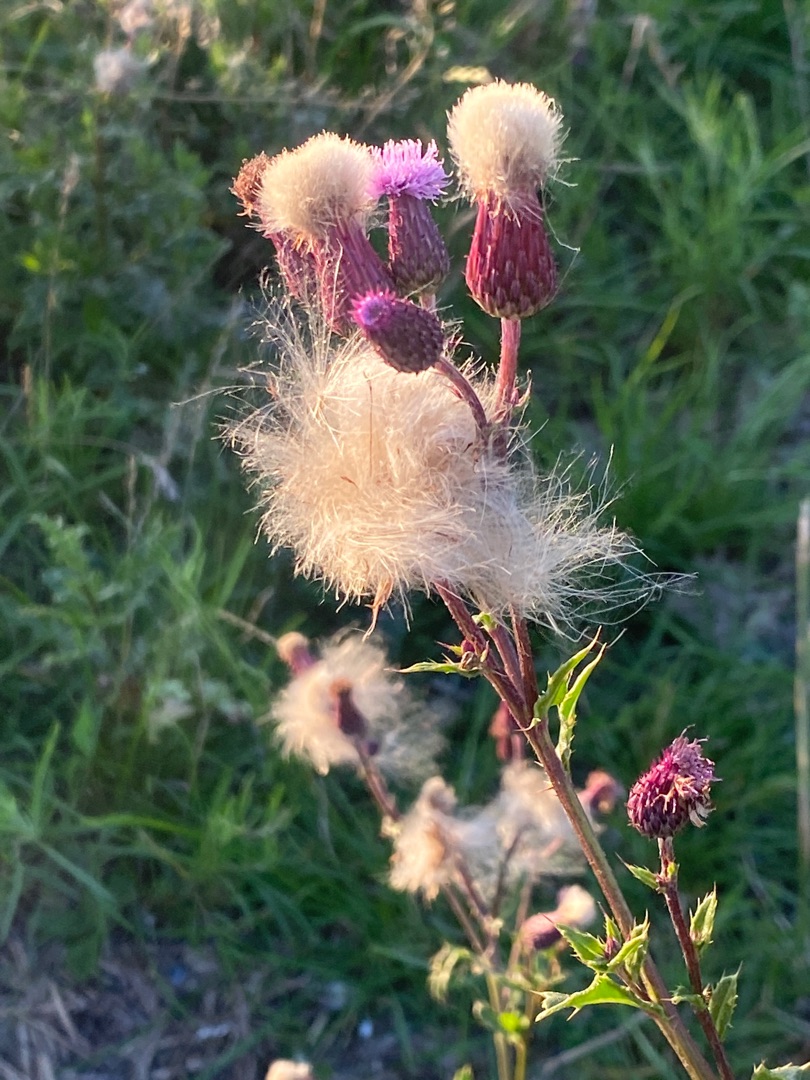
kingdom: Plantae
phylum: Tracheophyta
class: Magnoliopsida
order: Asterales
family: Asteraceae
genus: Cirsium
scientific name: Cirsium arvense
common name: Ager-tidsel
